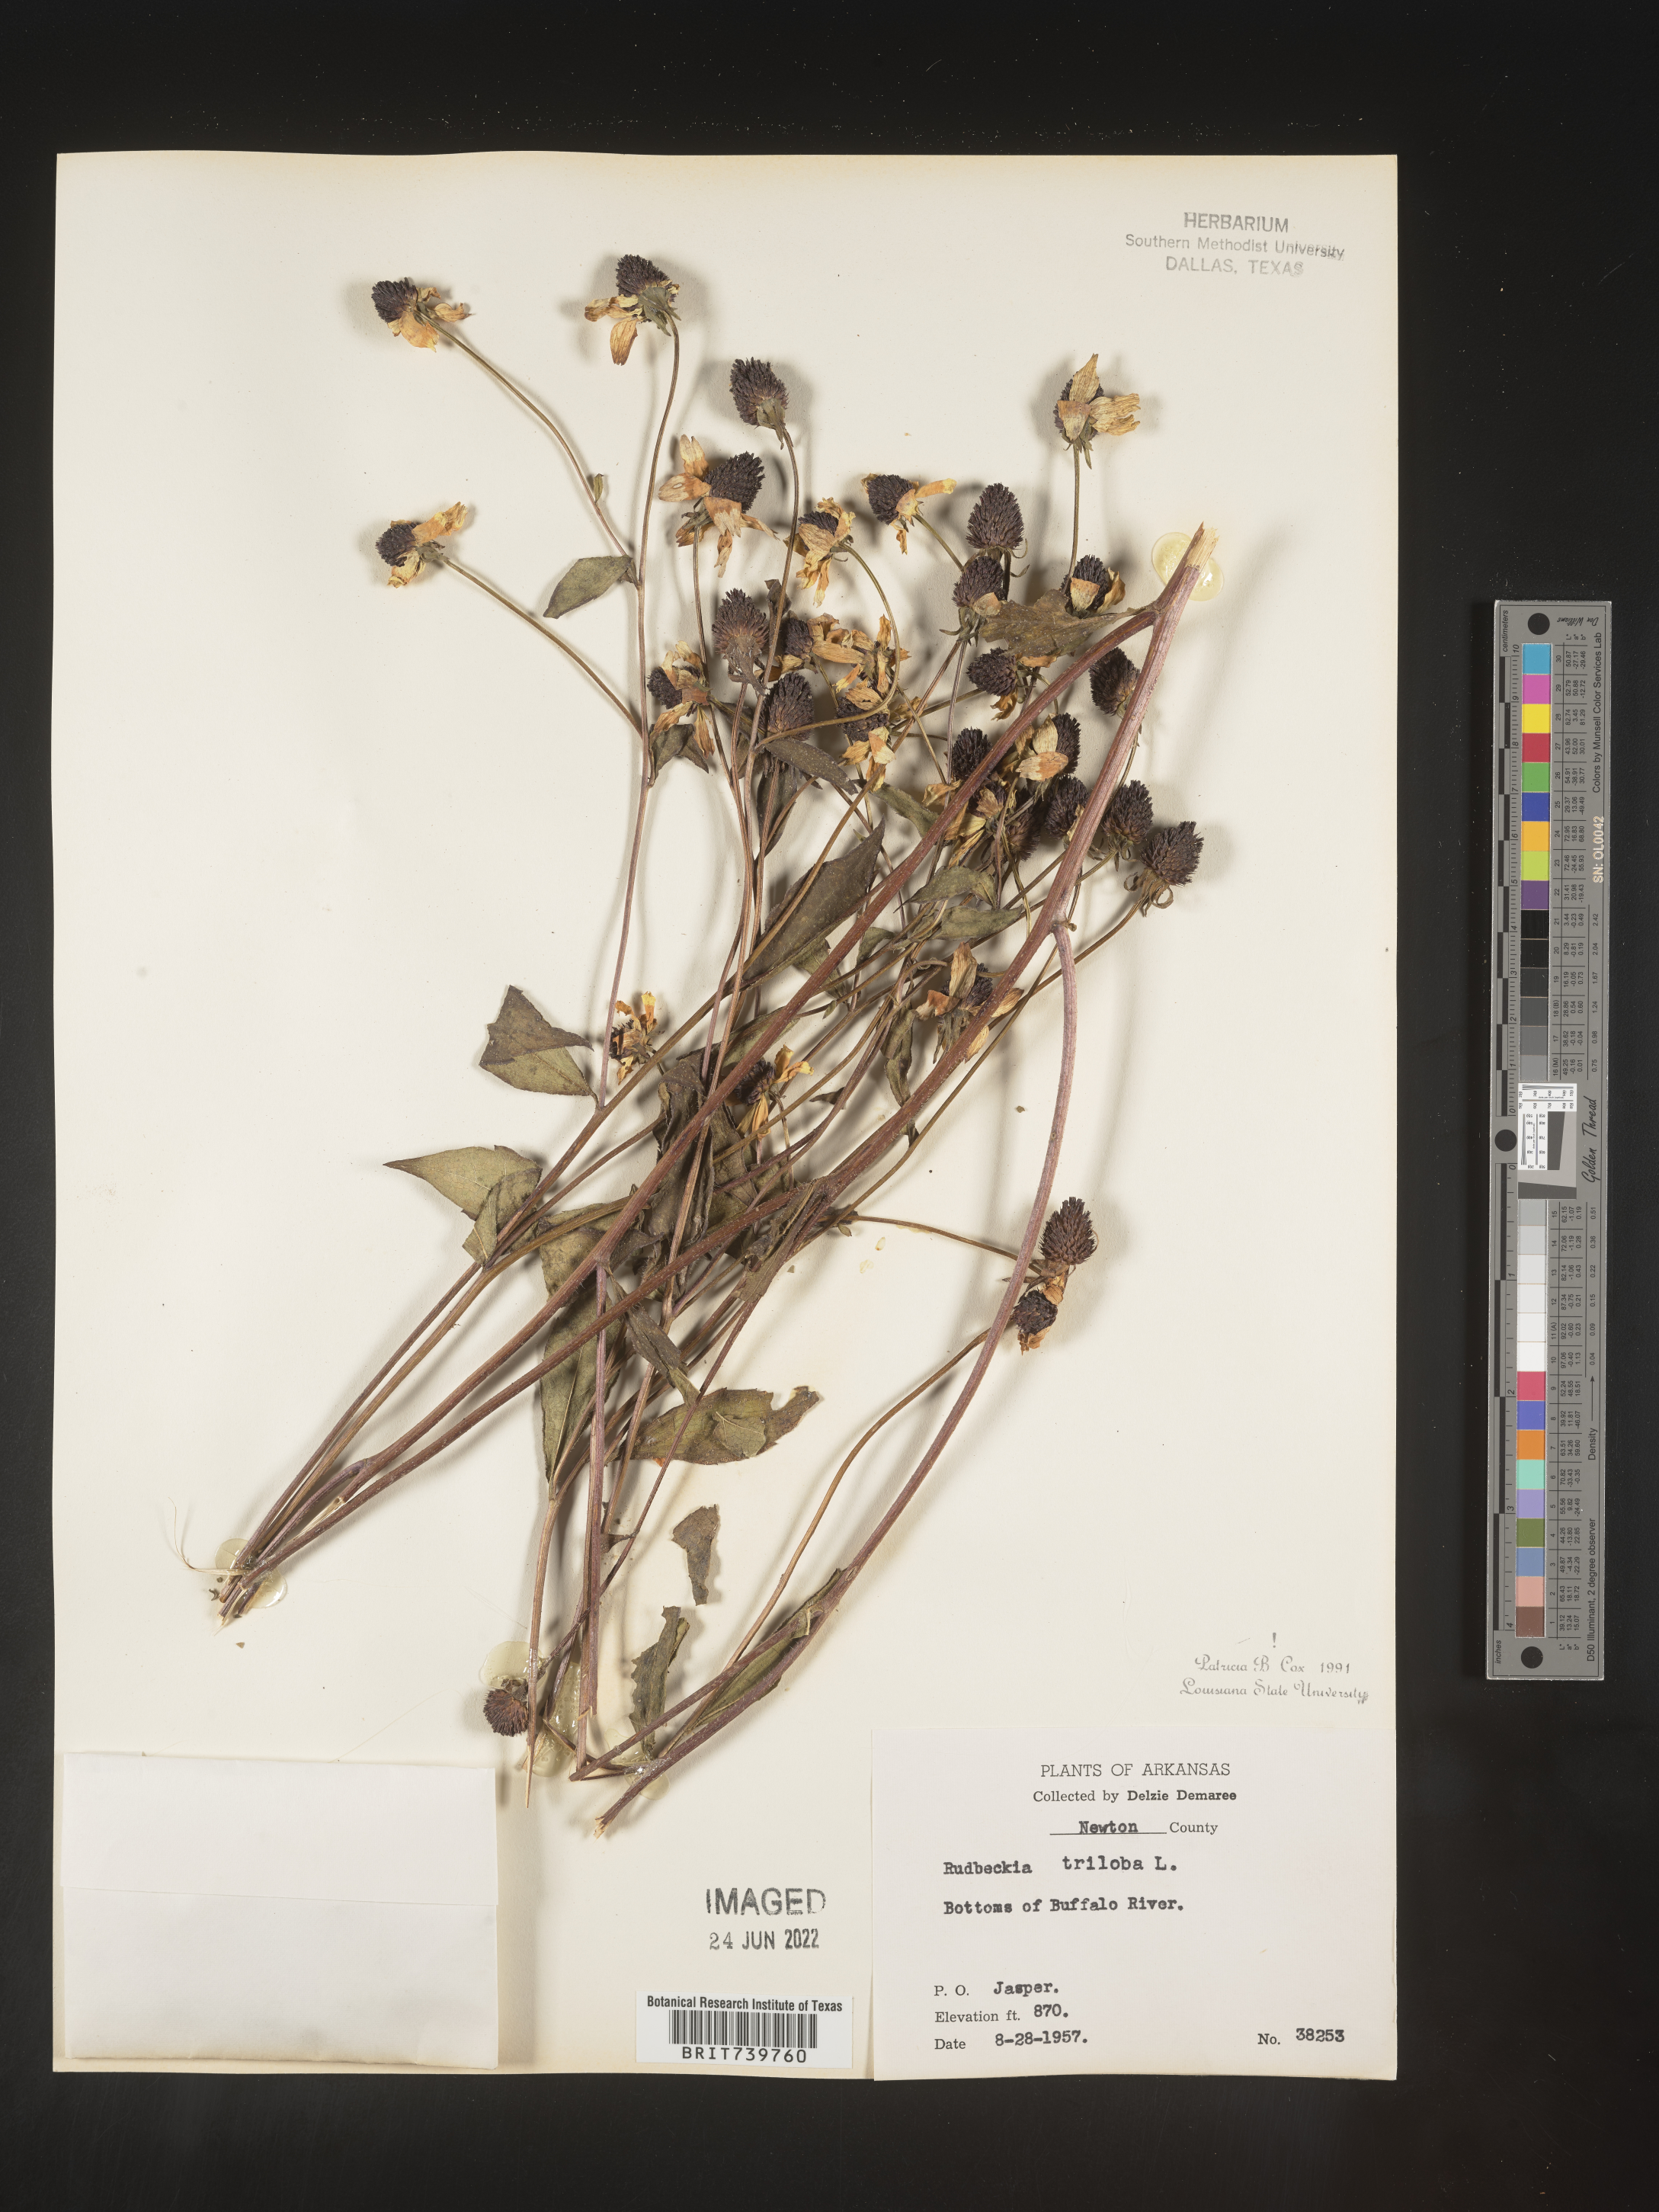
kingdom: Plantae
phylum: Tracheophyta
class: Magnoliopsida
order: Asterales
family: Asteraceae
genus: Rudbeckia
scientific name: Rudbeckia triloba
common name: Thin-leaved coneflower
